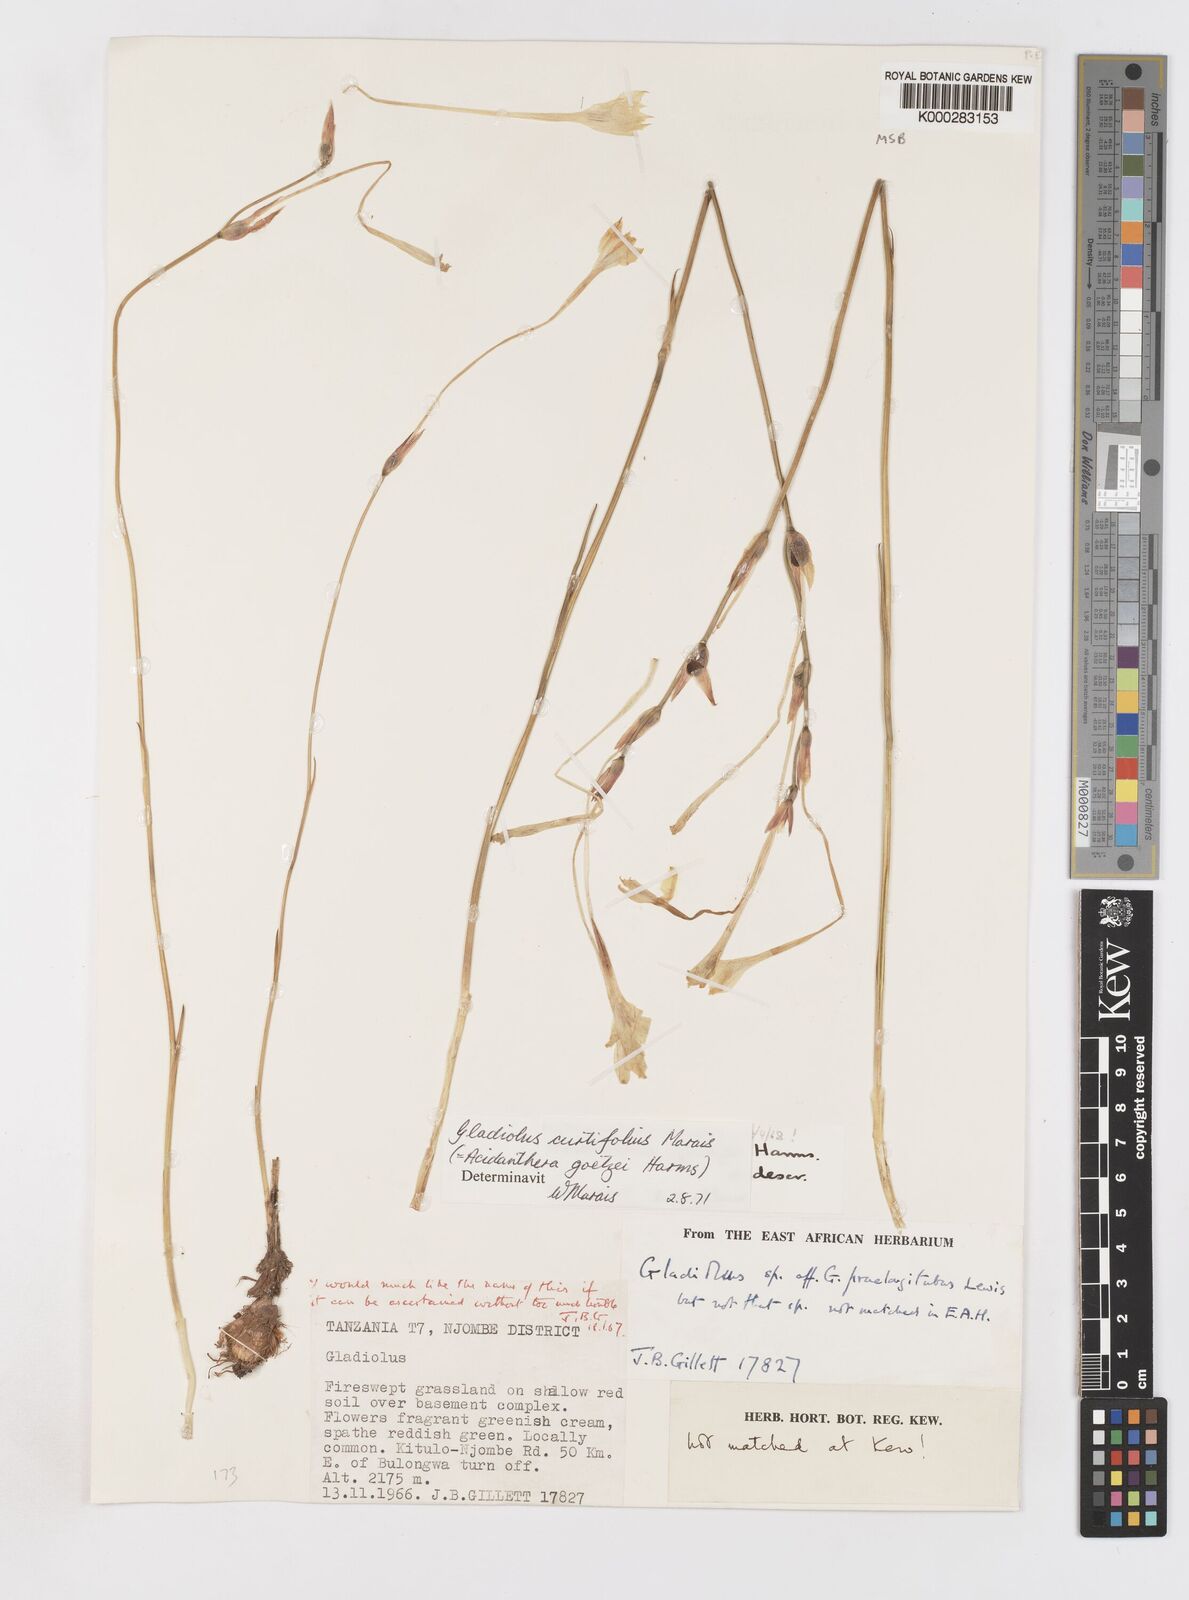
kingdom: Plantae
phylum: Tracheophyta
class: Liliopsida
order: Asparagales
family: Iridaceae
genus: Gladiolus
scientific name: Gladiolus curtifolius
